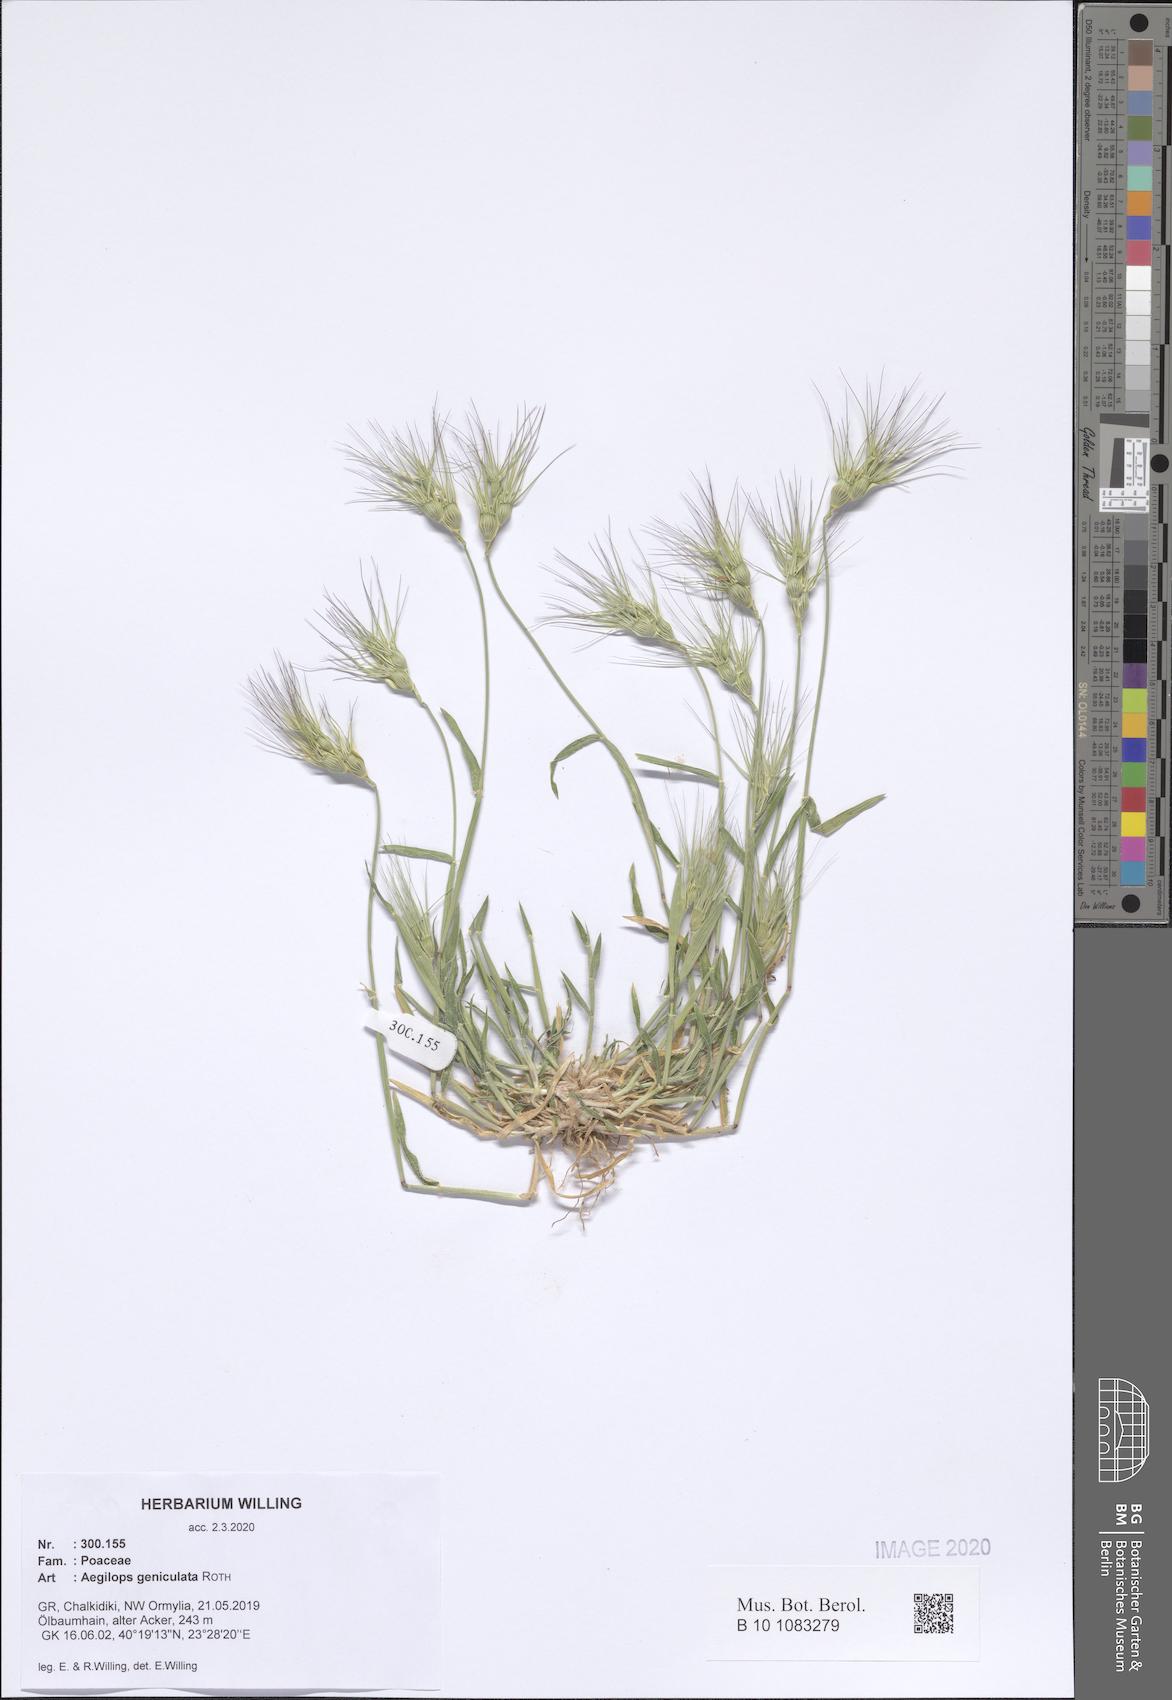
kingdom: Plantae
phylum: Tracheophyta
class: Liliopsida
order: Poales
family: Poaceae
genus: Aegilops
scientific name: Aegilops geniculata
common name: Ovate goat grass
